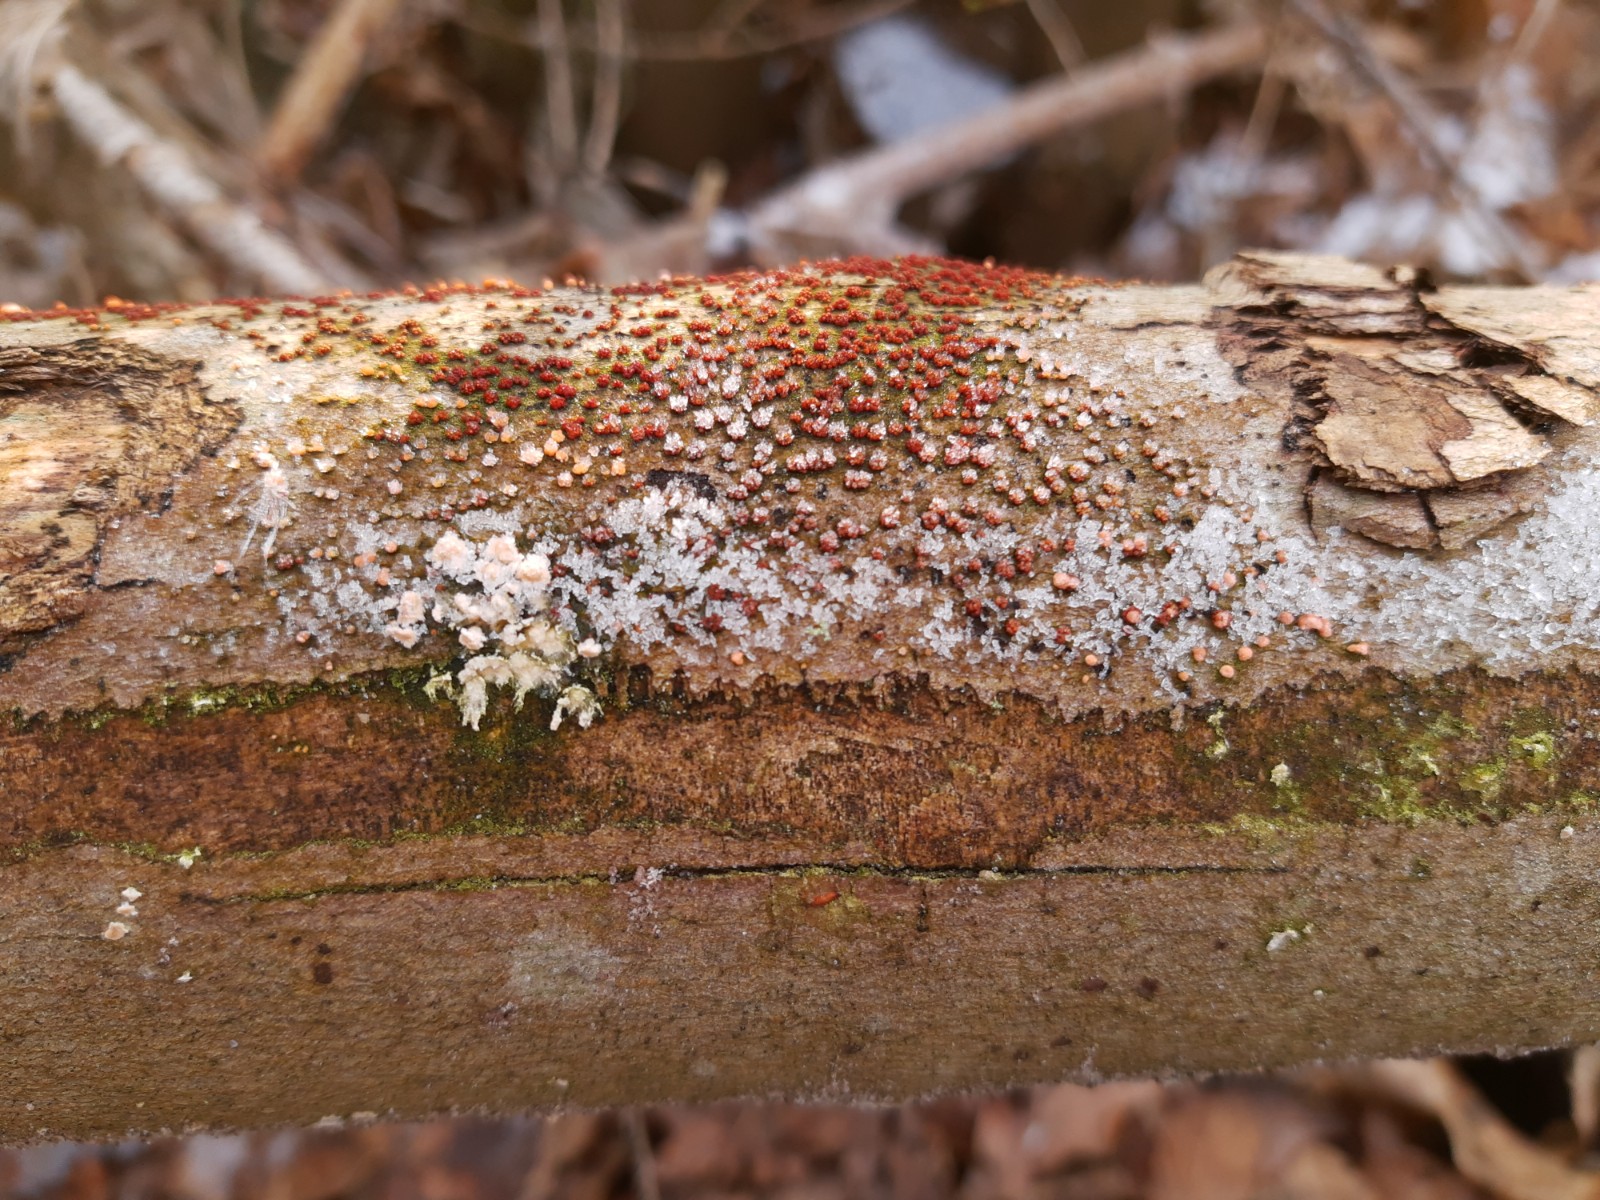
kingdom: Fungi
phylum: Ascomycota
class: Sordariomycetes
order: Hypocreales
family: Nectriaceae
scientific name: Nectriaceae
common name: cinnobersvampfamilien
